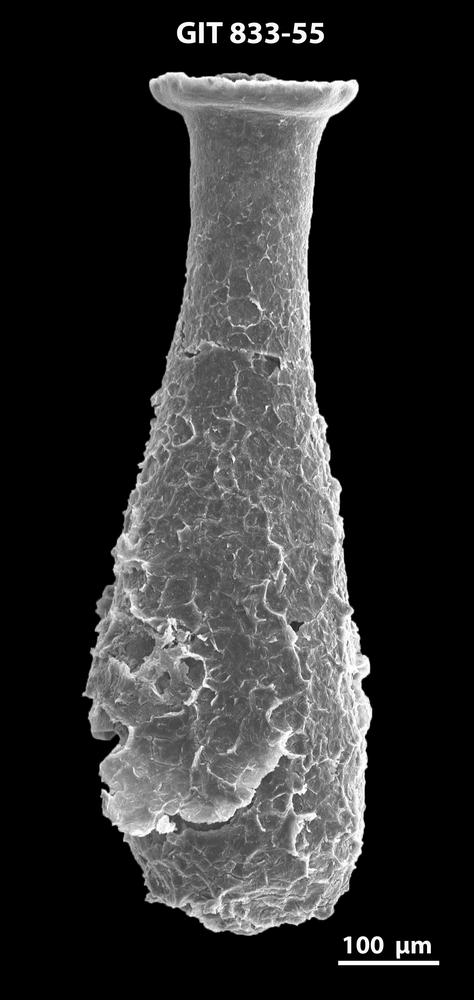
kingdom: Animalia
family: Lagenochitinidae
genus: Lagenochitina
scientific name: Lagenochitina megaesthonica
